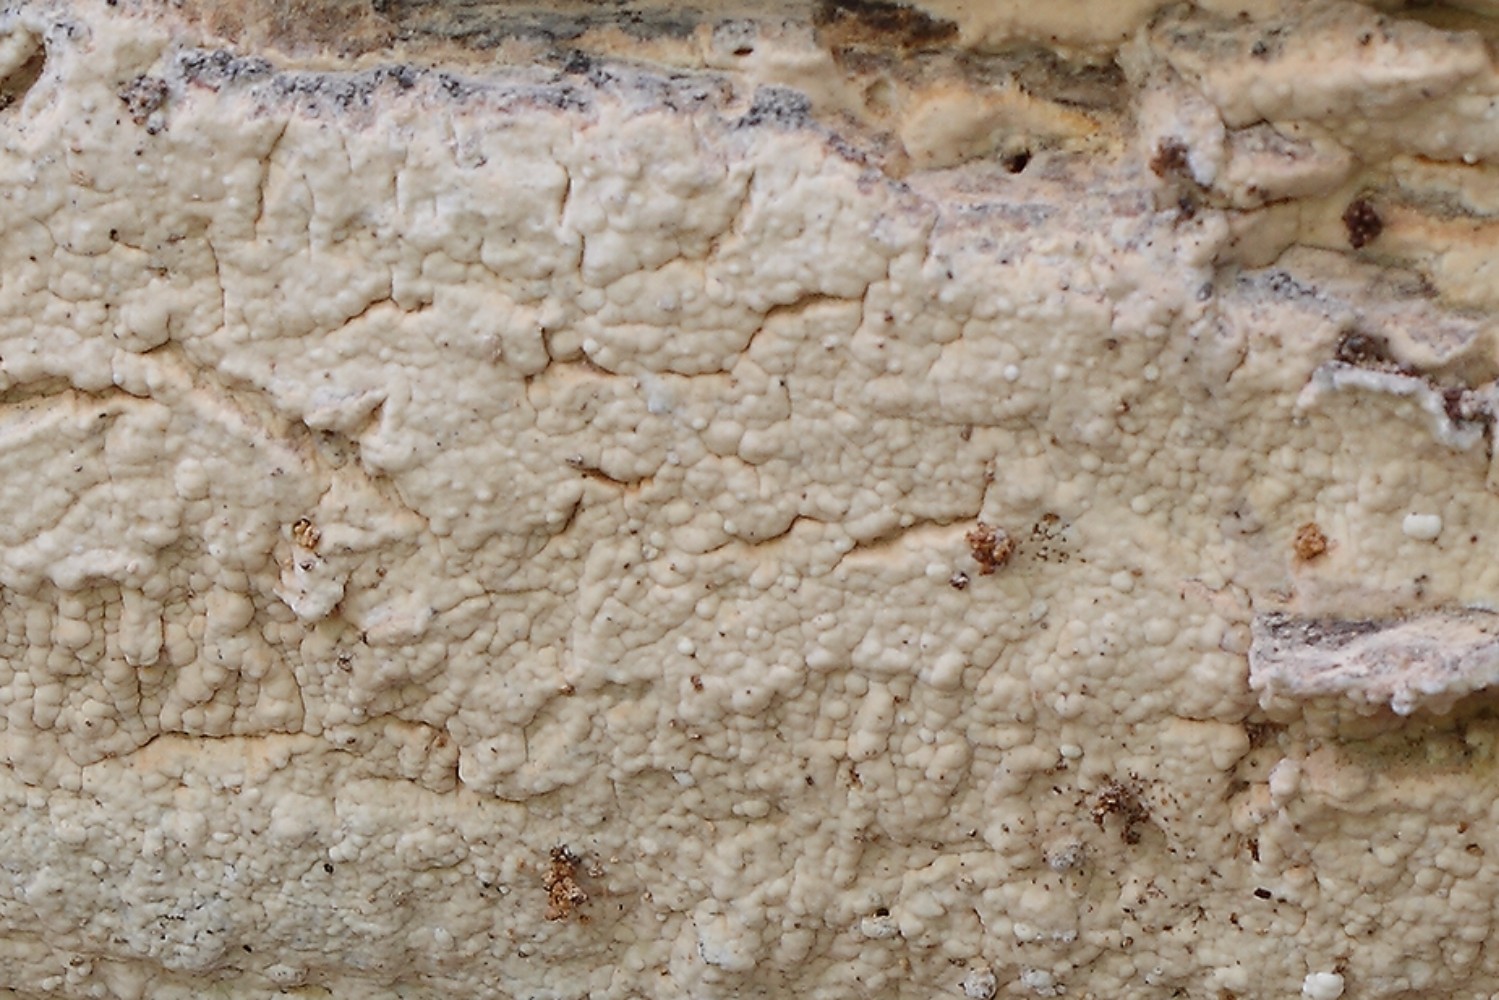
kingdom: Fungi
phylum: Basidiomycota
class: Agaricomycetes
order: Agaricales
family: Cyphellaceae
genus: Granulobasidium
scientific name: Granulobasidium vellereum
